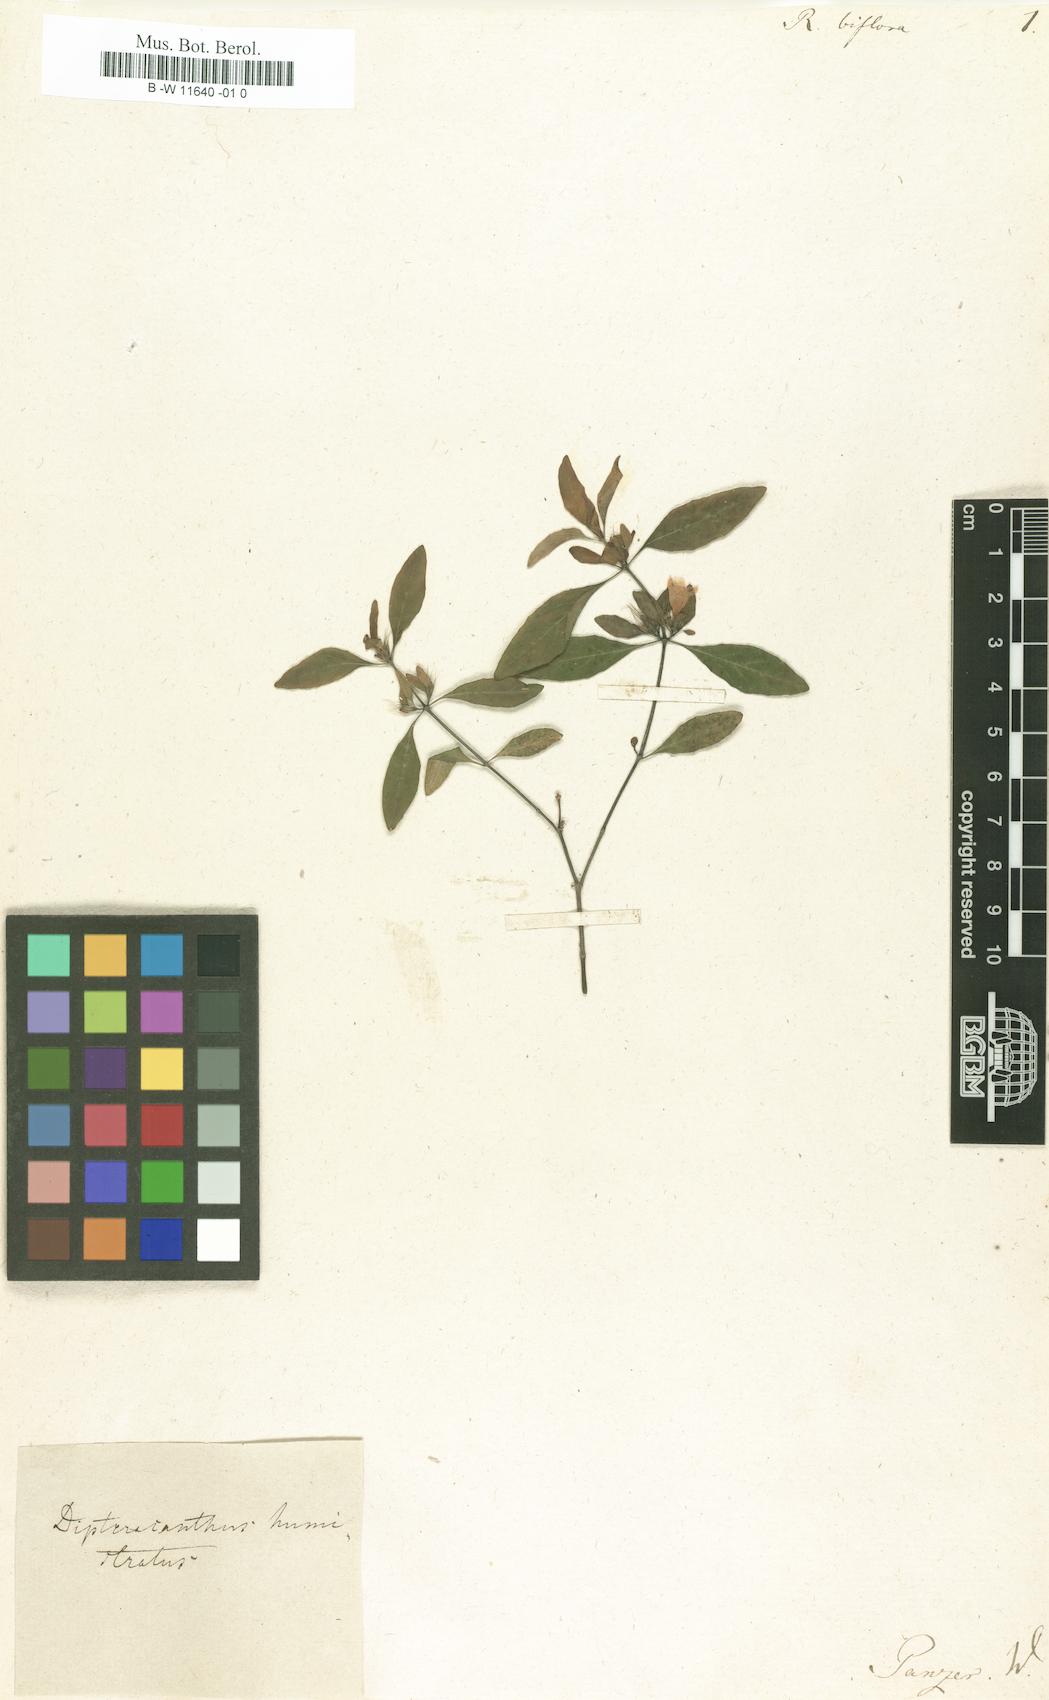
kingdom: Plantae
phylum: Tracheophyta
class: Magnoliopsida
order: Lamiales
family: Acanthaceae
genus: Dyschoriste
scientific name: Dyschoriste oblongifolia
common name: Blue twinflower
